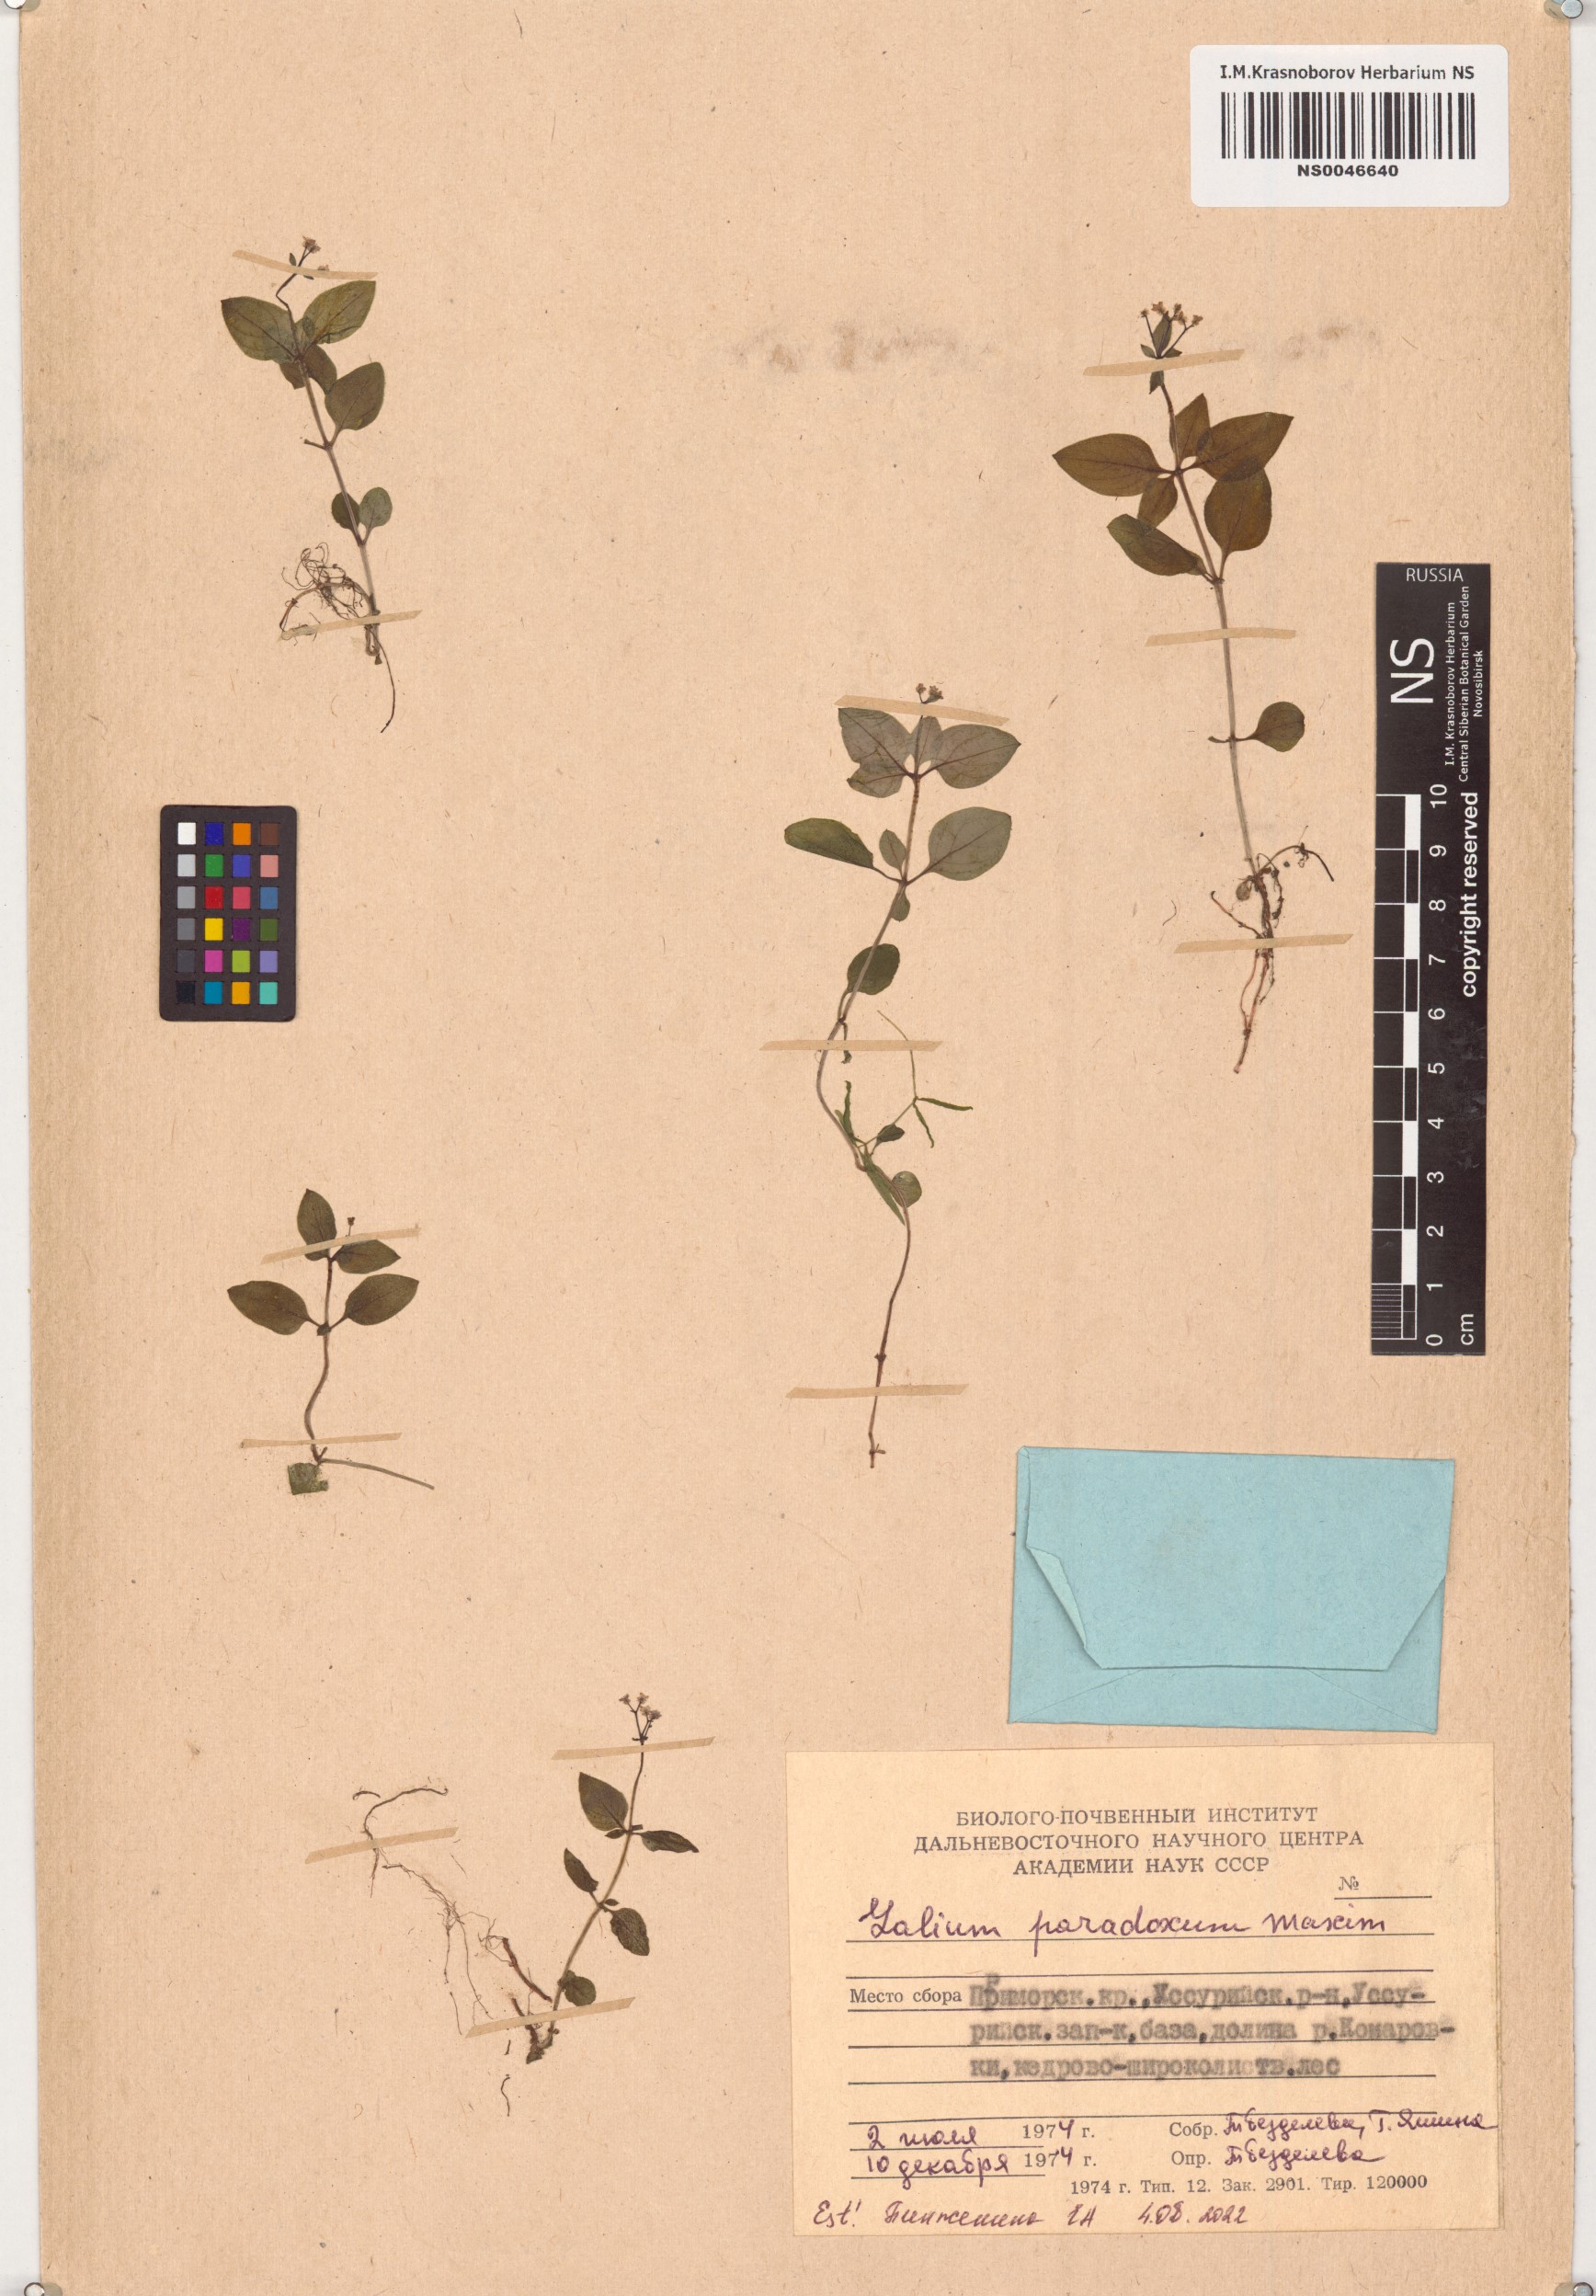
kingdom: Plantae
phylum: Tracheophyta
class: Magnoliopsida
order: Gentianales
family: Rubiaceae
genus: Pseudogalium
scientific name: Pseudogalium paradoxum
